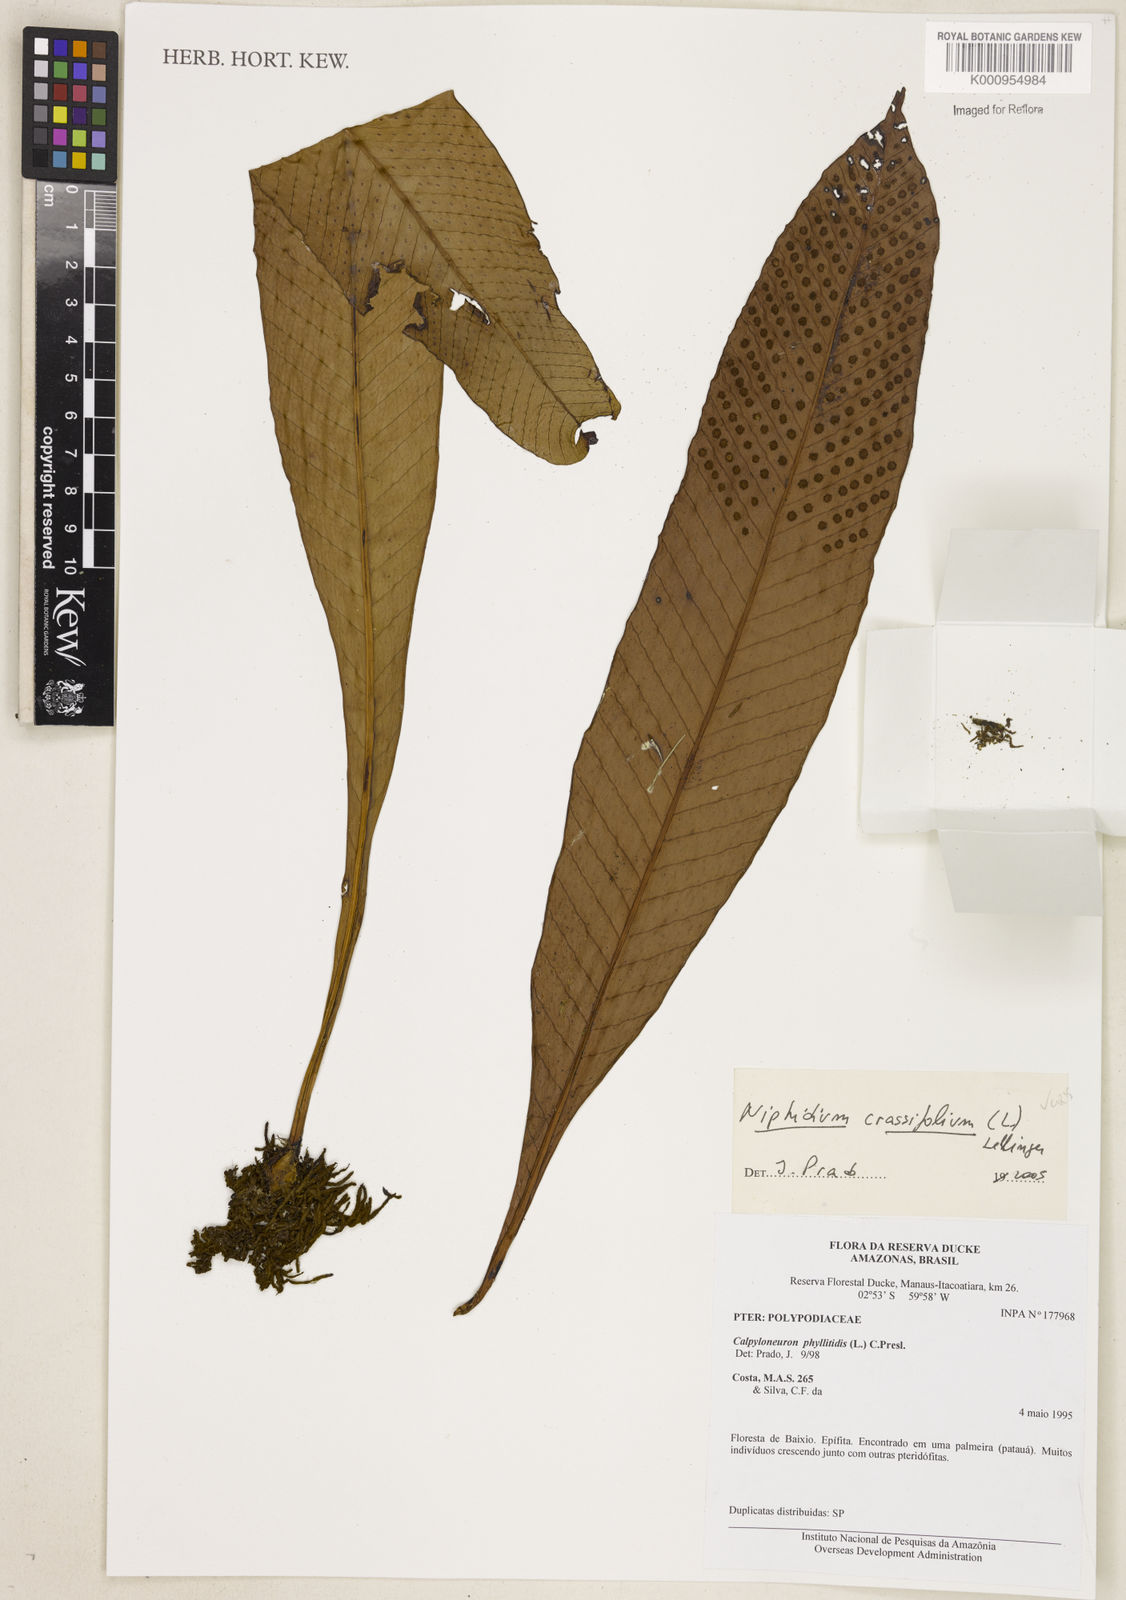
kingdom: Plantae
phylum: Tracheophyta
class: Polypodiopsida
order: Polypodiales
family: Polypodiaceae
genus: Niphidium
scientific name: Niphidium crassifolium
